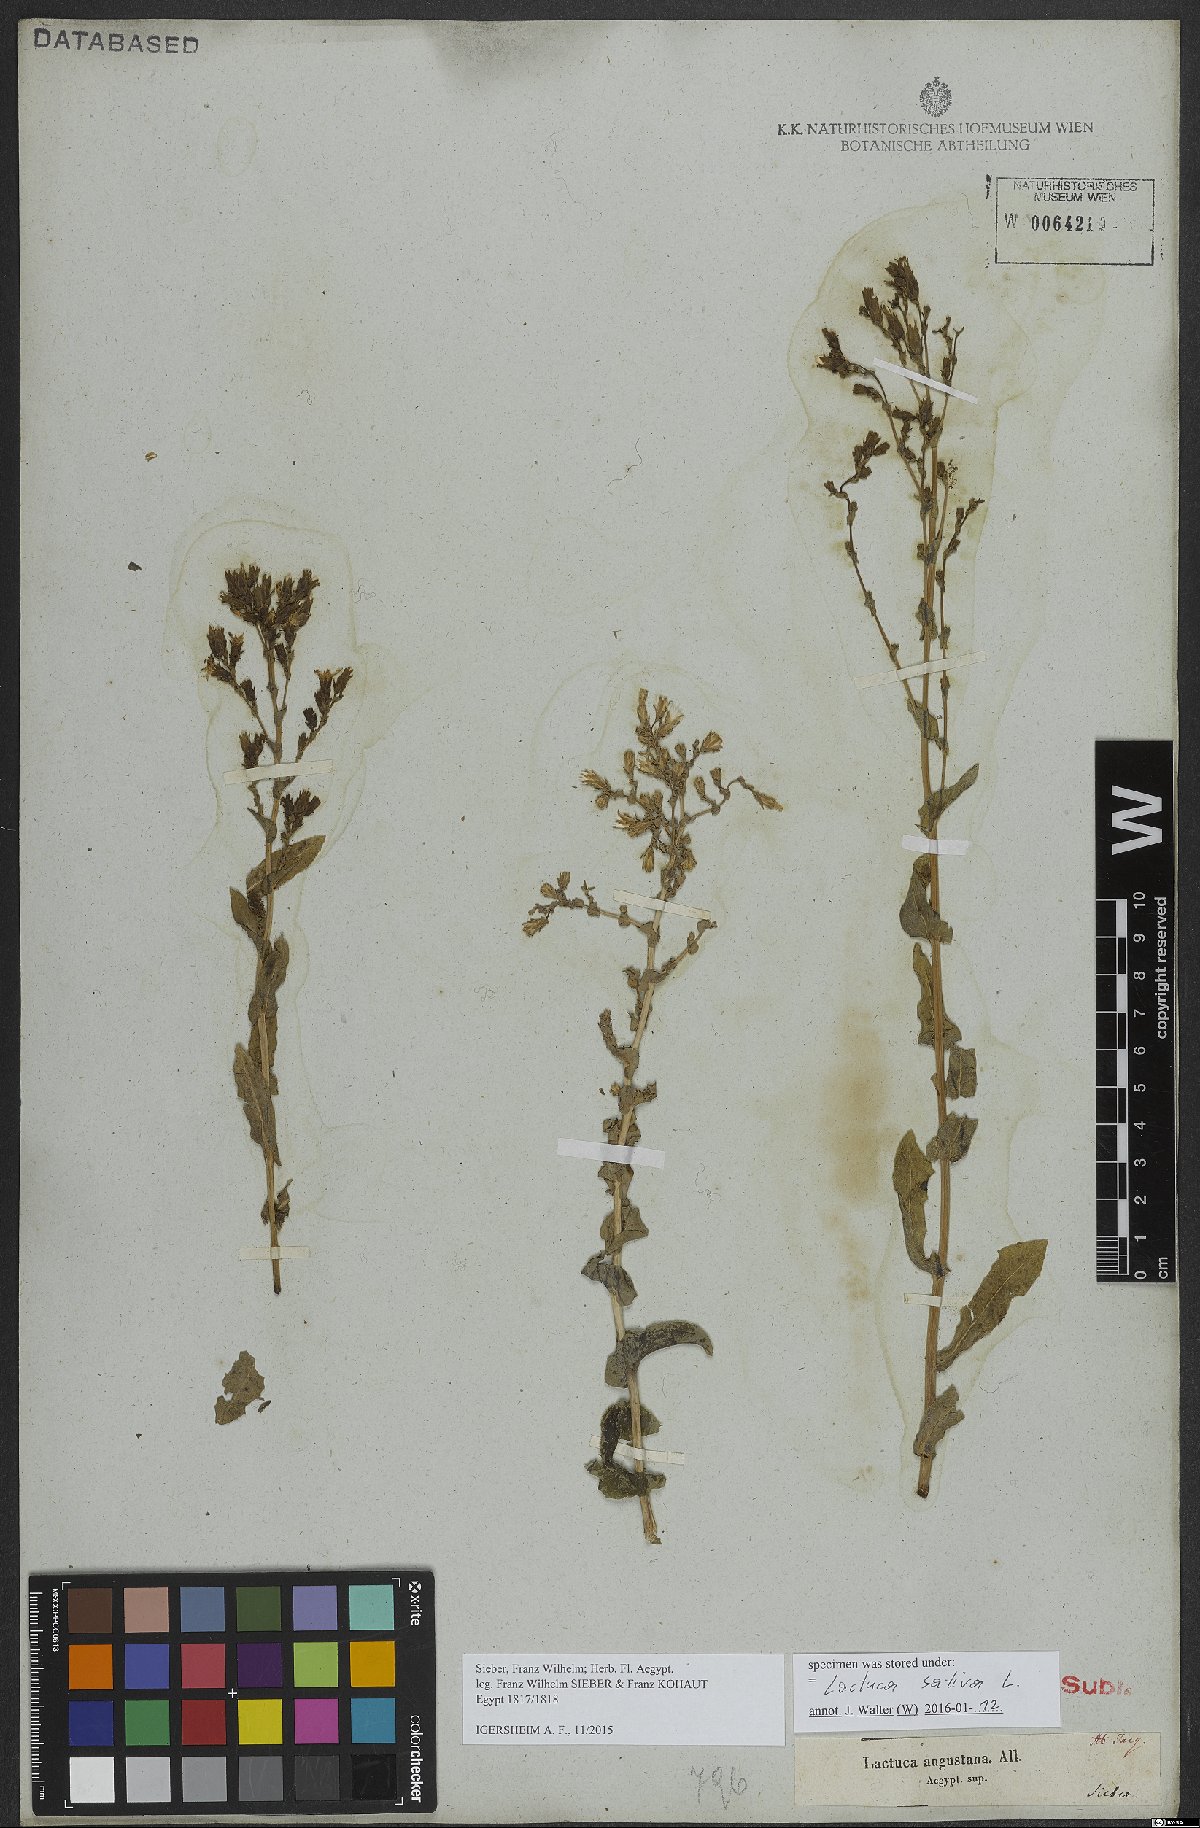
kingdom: Plantae
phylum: Tracheophyta
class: Magnoliopsida
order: Asterales
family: Asteraceae
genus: Lactuca
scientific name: Lactuca sativa
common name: Garden lettuce
